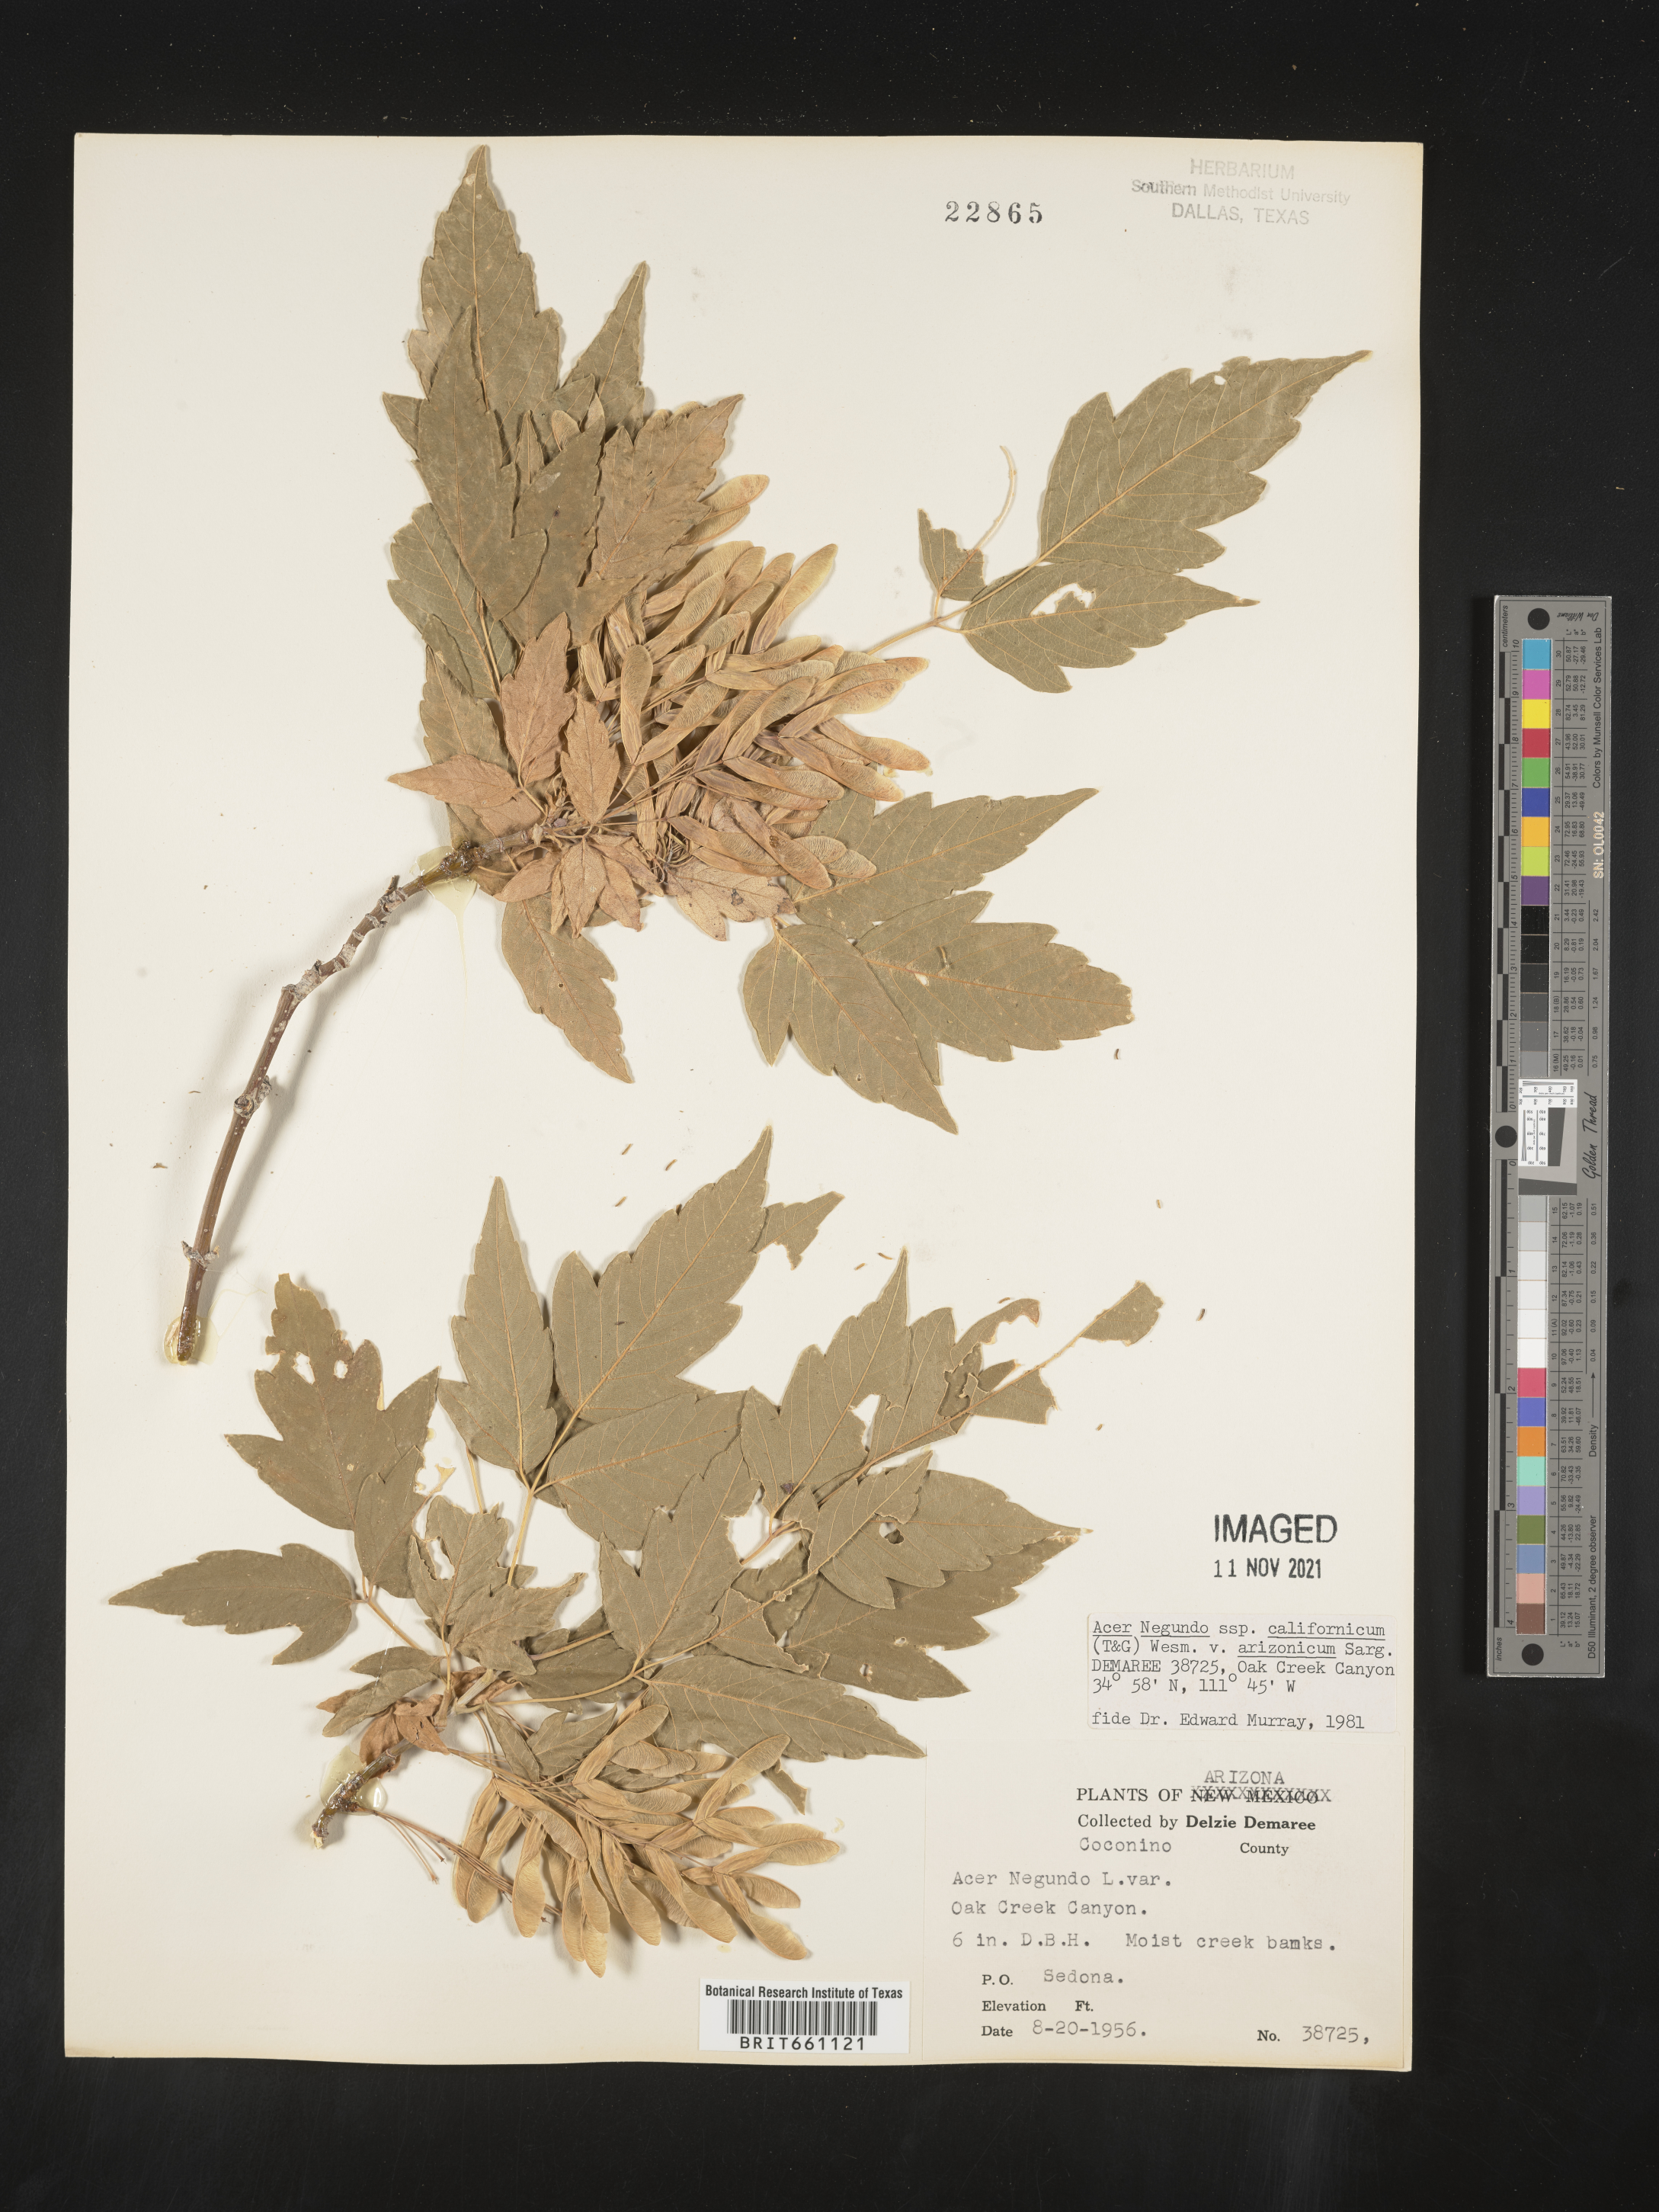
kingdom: Plantae
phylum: Tracheophyta
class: Magnoliopsida
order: Sapindales
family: Sapindaceae
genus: Acer
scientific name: Acer negundo
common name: Ashleaf maple
